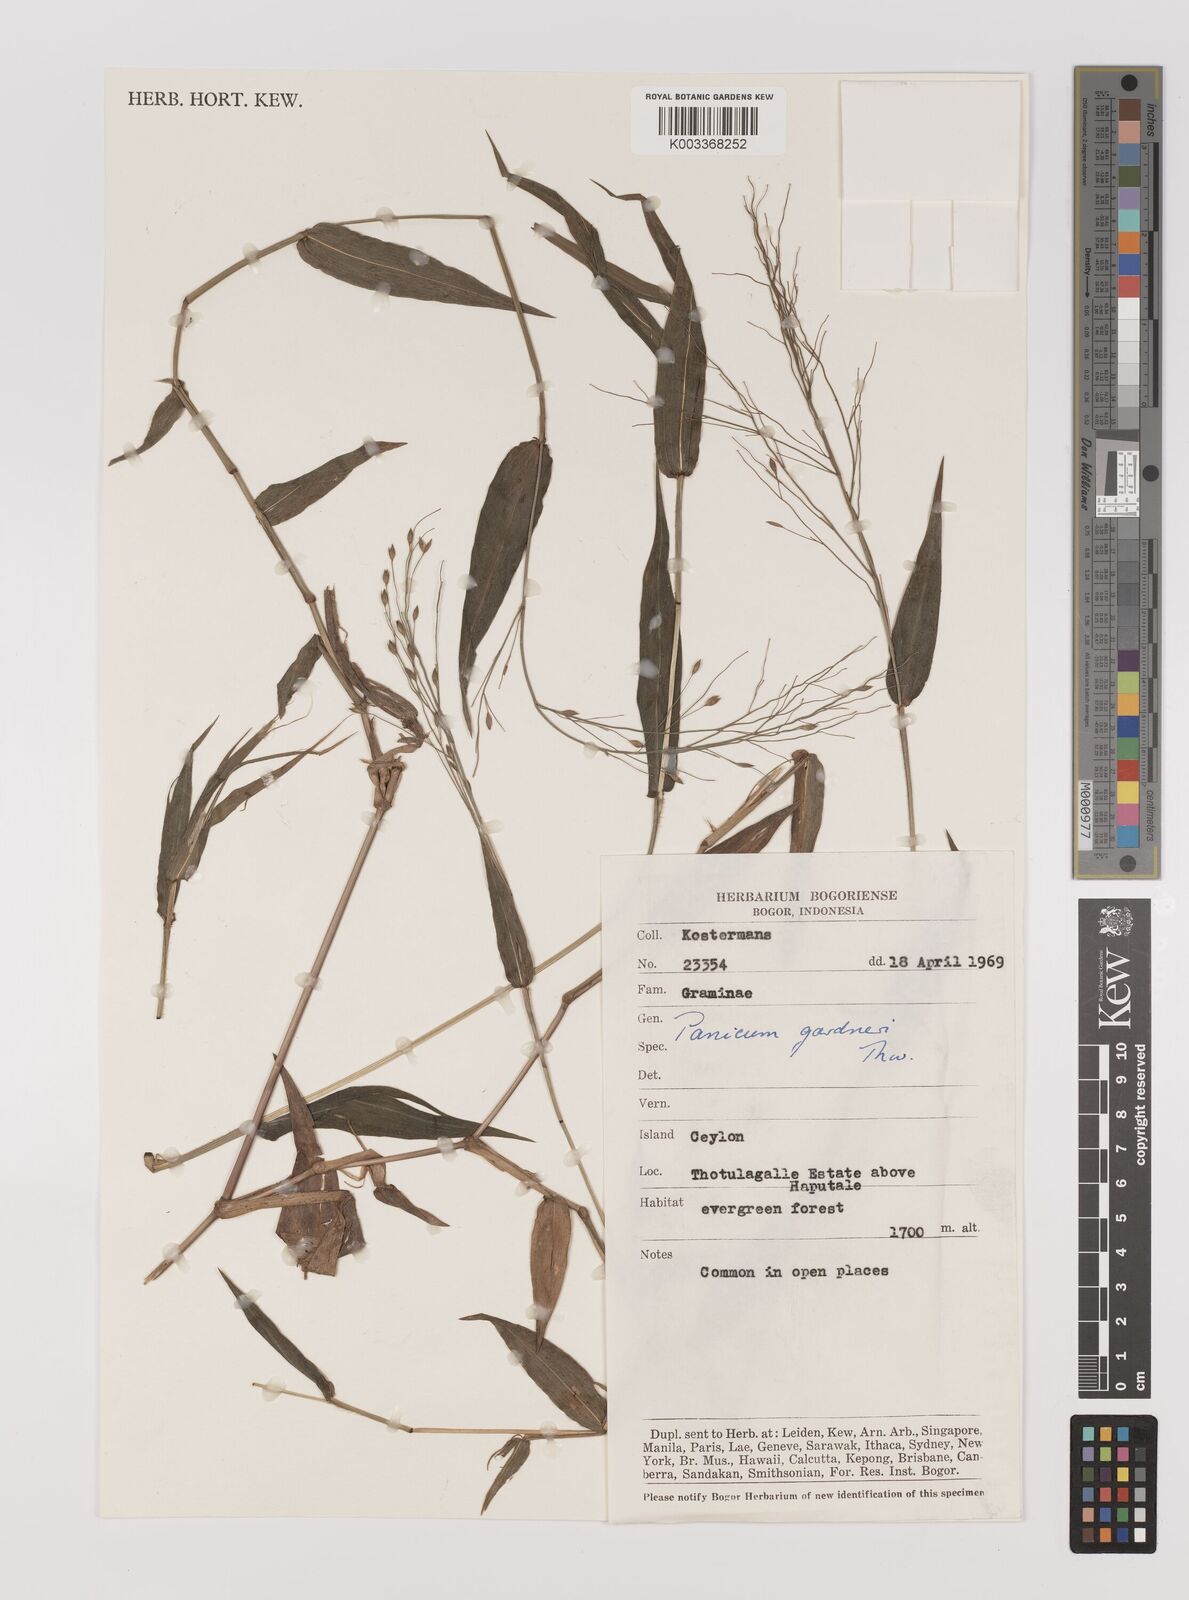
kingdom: Plantae
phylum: Tracheophyta
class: Liliopsida
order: Poales
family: Poaceae
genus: Panicum
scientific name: Panicum gardneri
